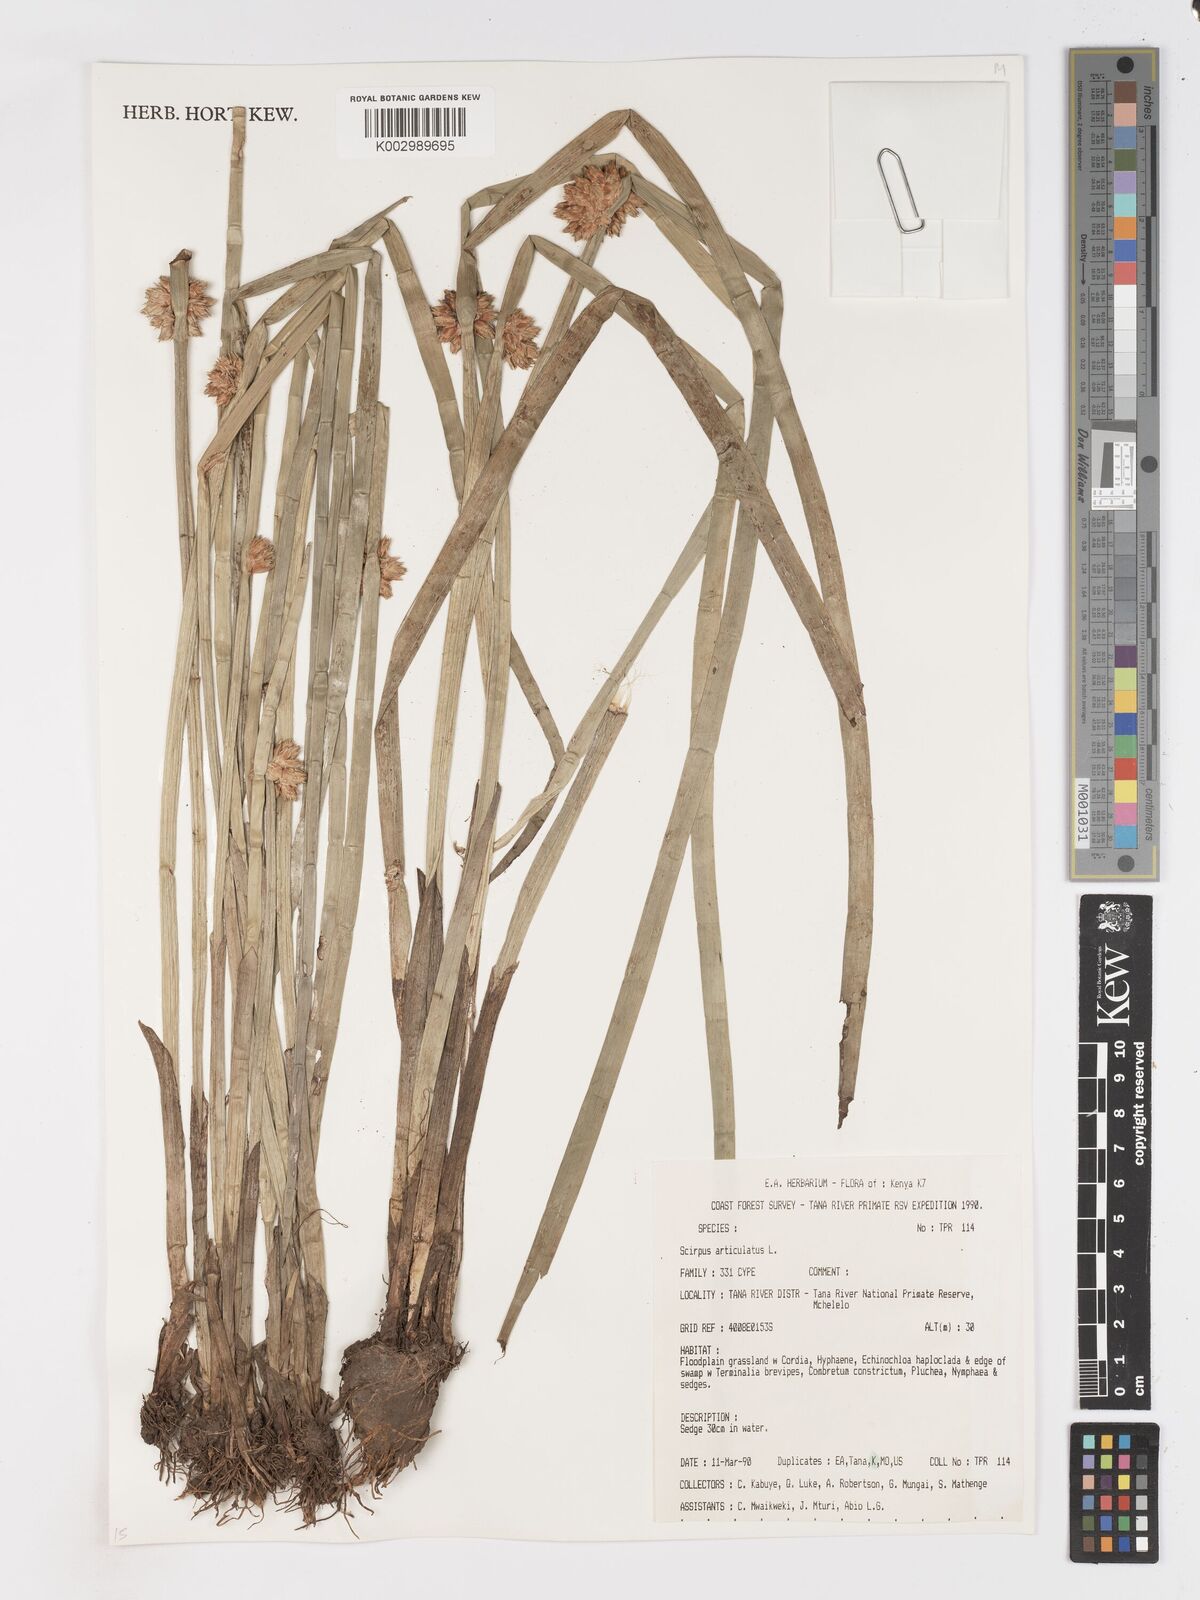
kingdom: Plantae
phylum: Tracheophyta
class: Liliopsida
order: Poales
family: Cyperaceae
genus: Schoenoplectiella
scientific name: Schoenoplectiella articulata
